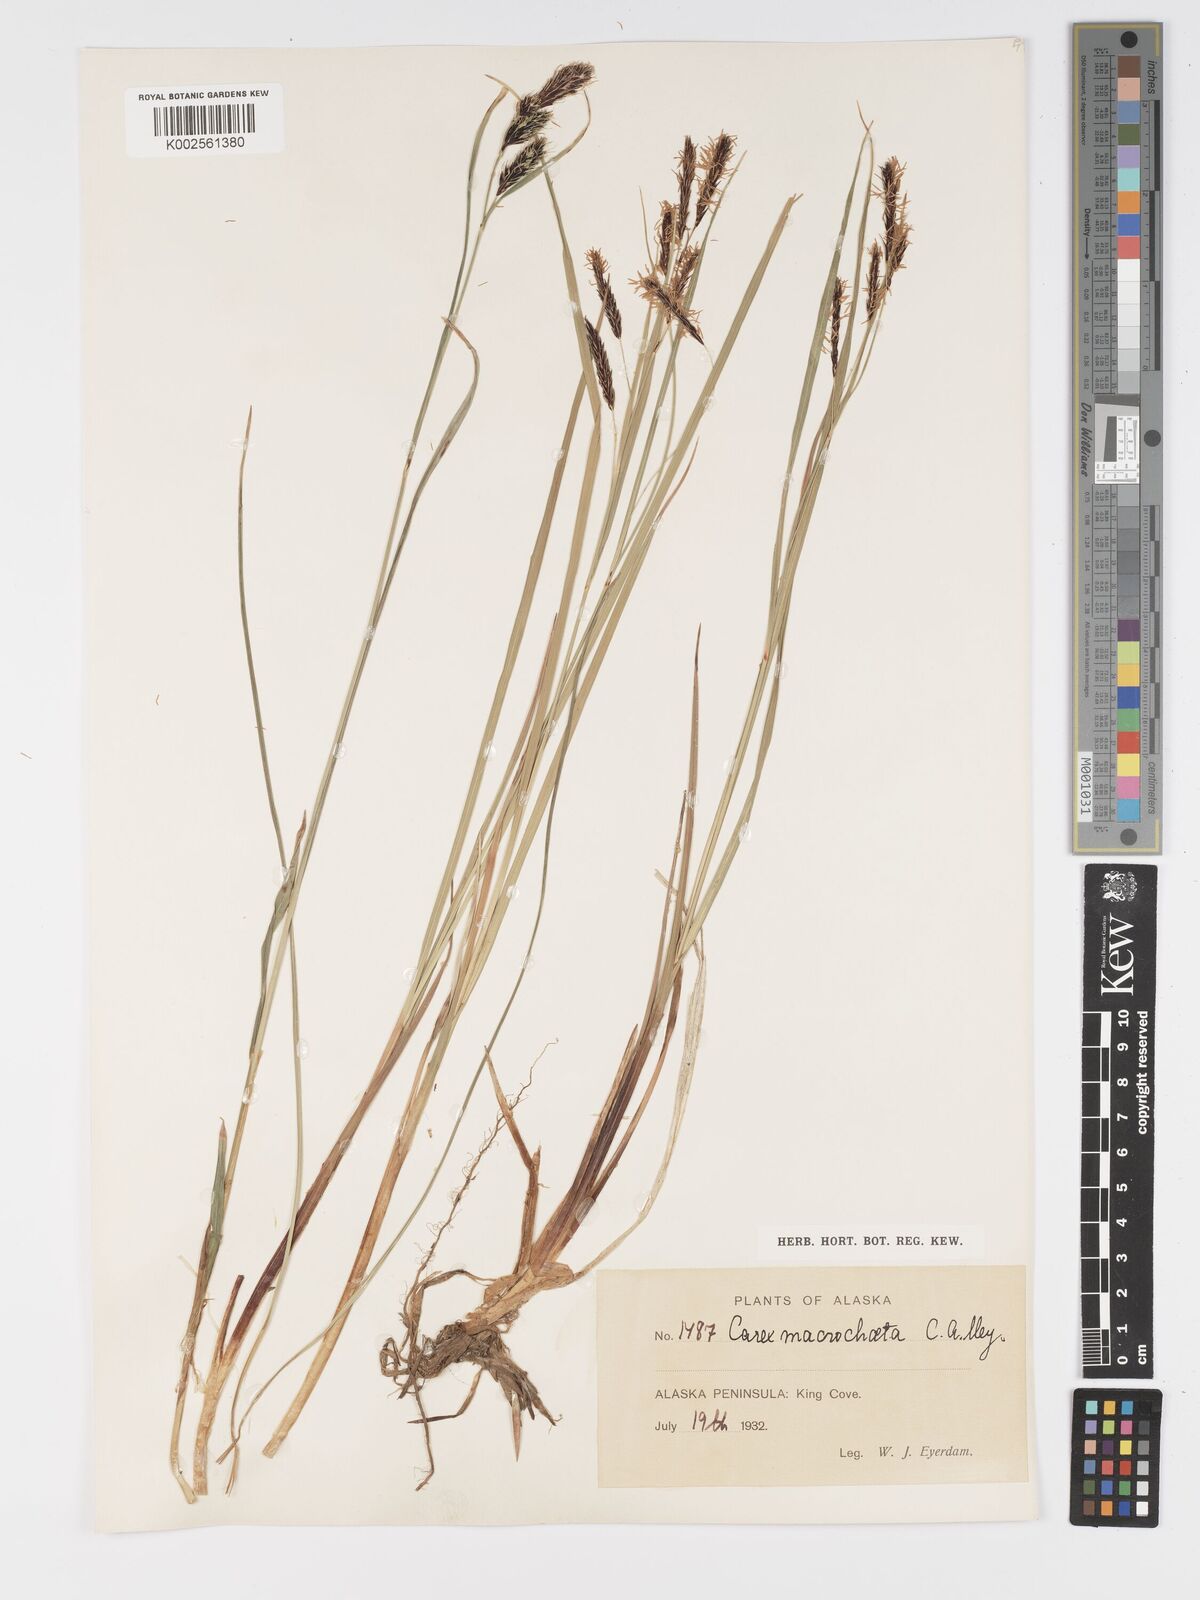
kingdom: Plantae
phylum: Tracheophyta
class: Liliopsida
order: Poales
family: Cyperaceae
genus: Carex
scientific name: Carex macrochaeta
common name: Alaska large awn sedge
